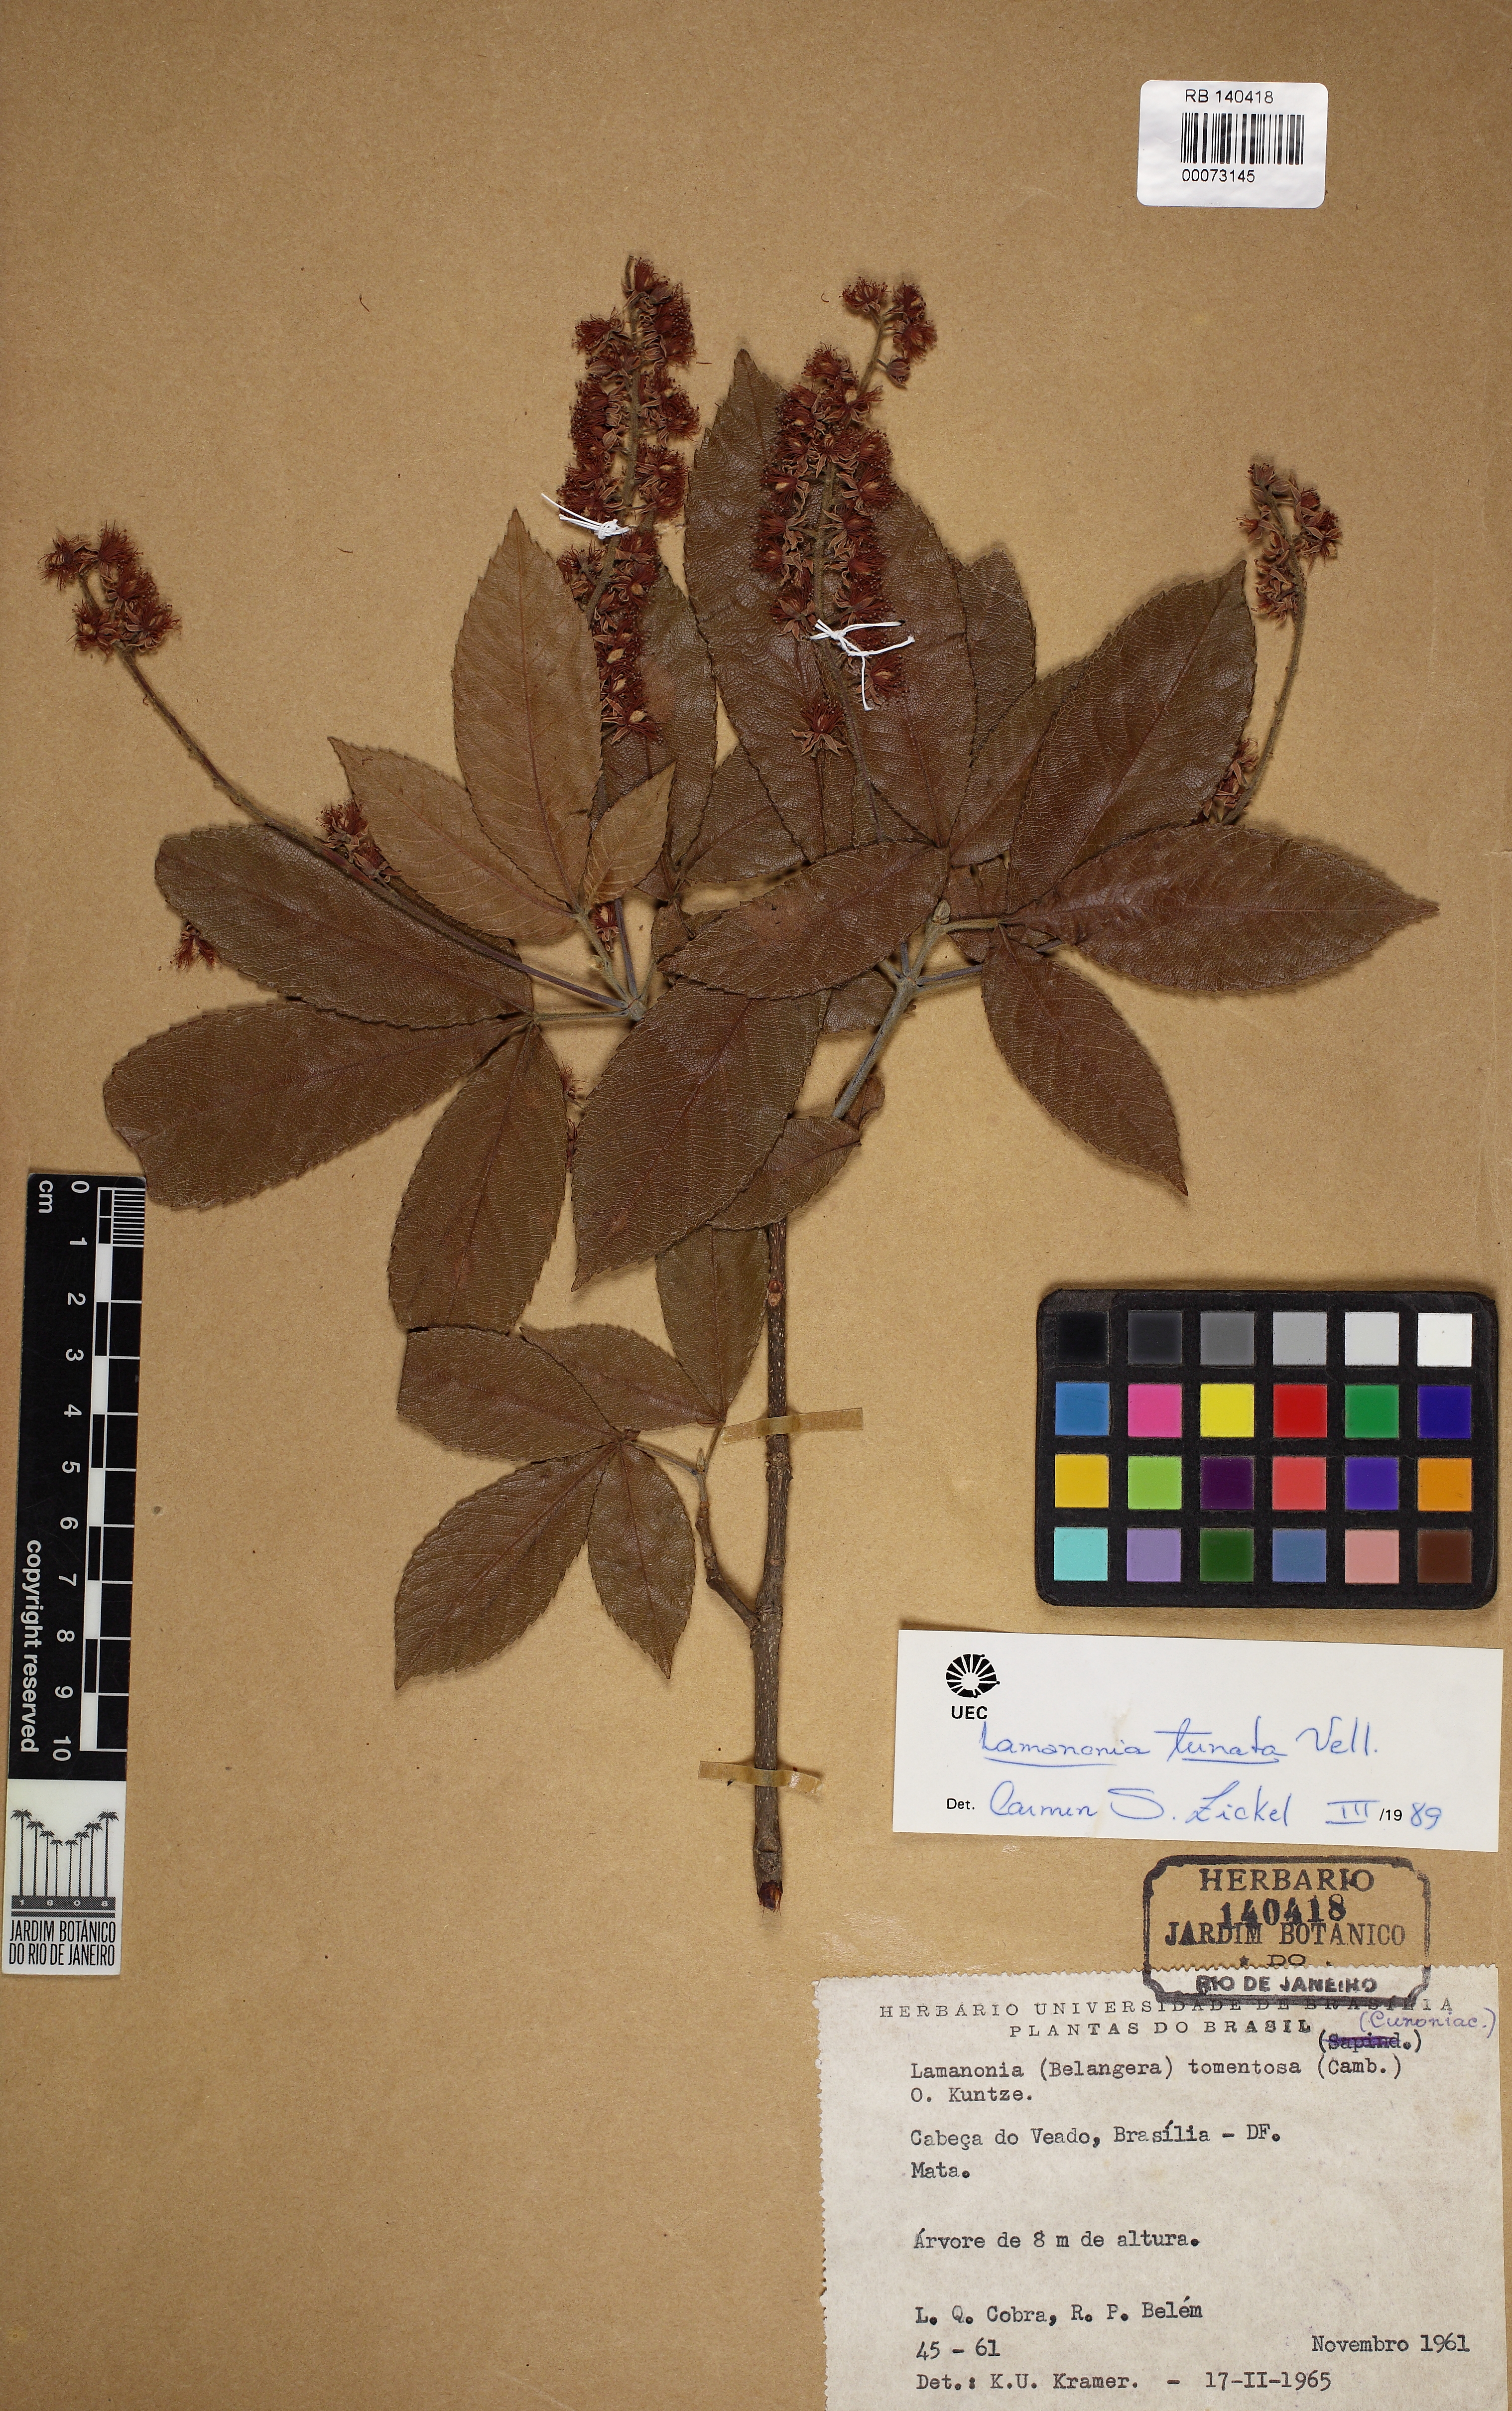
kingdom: Plantae
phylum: Tracheophyta
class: Magnoliopsida
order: Oxalidales
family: Cunoniaceae
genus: Lamanonia
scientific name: Lamanonia ternata
